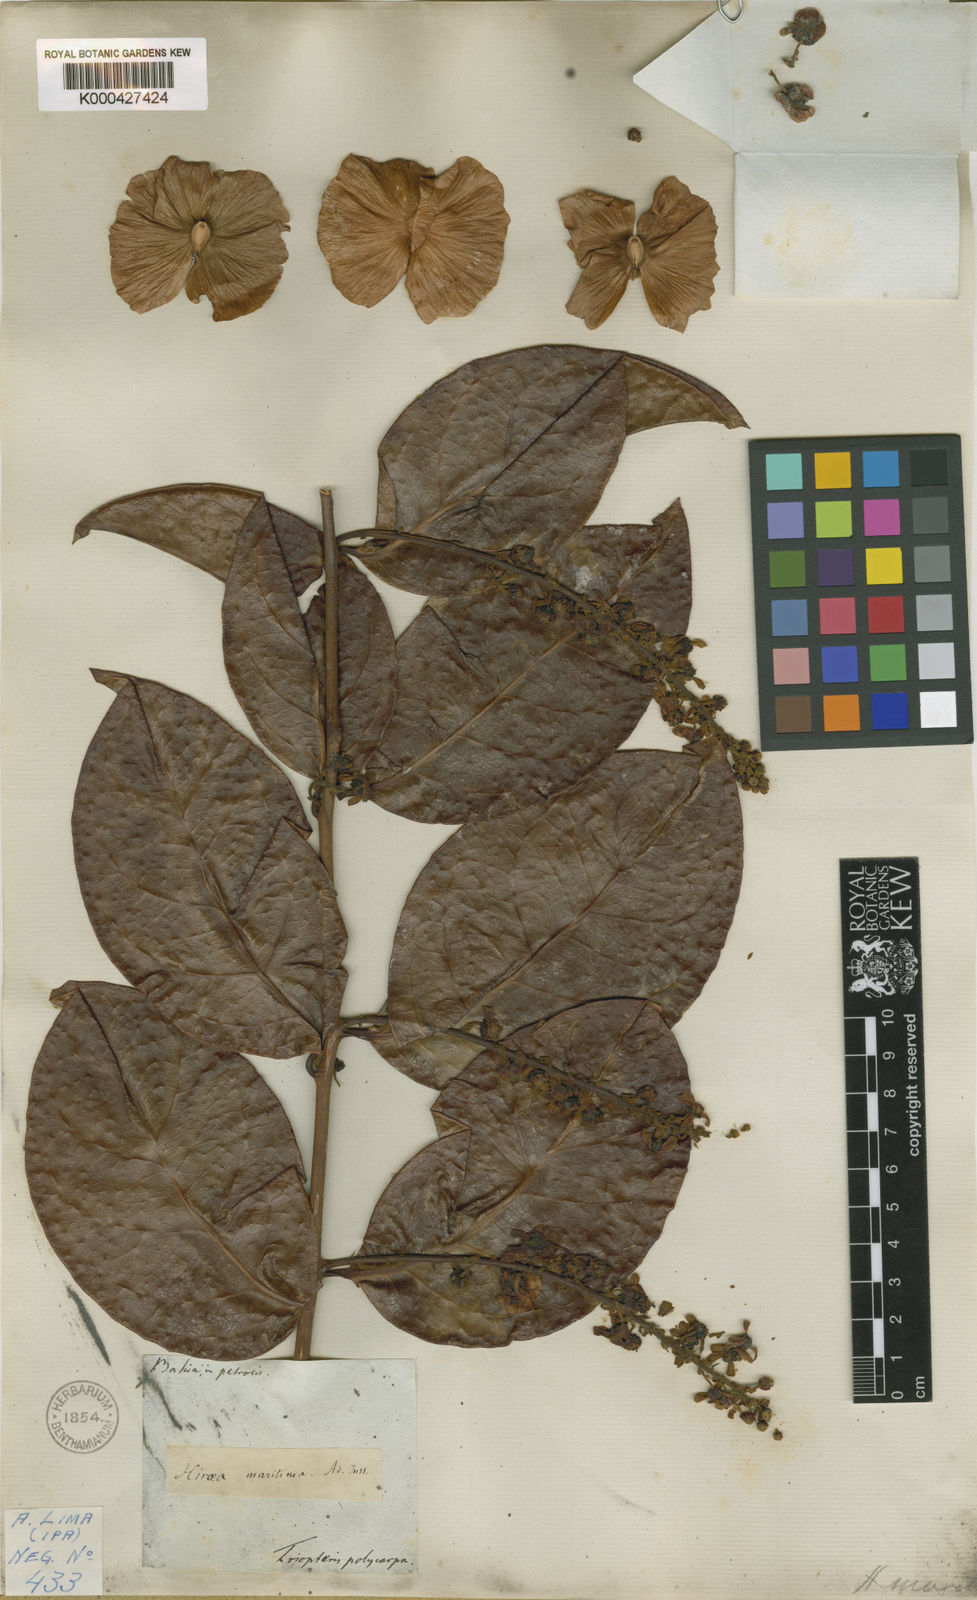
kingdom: Plantae
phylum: Tracheophyta
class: Magnoliopsida
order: Malpighiales
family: Malpighiaceae
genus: Amorimia
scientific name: Amorimia maritima
